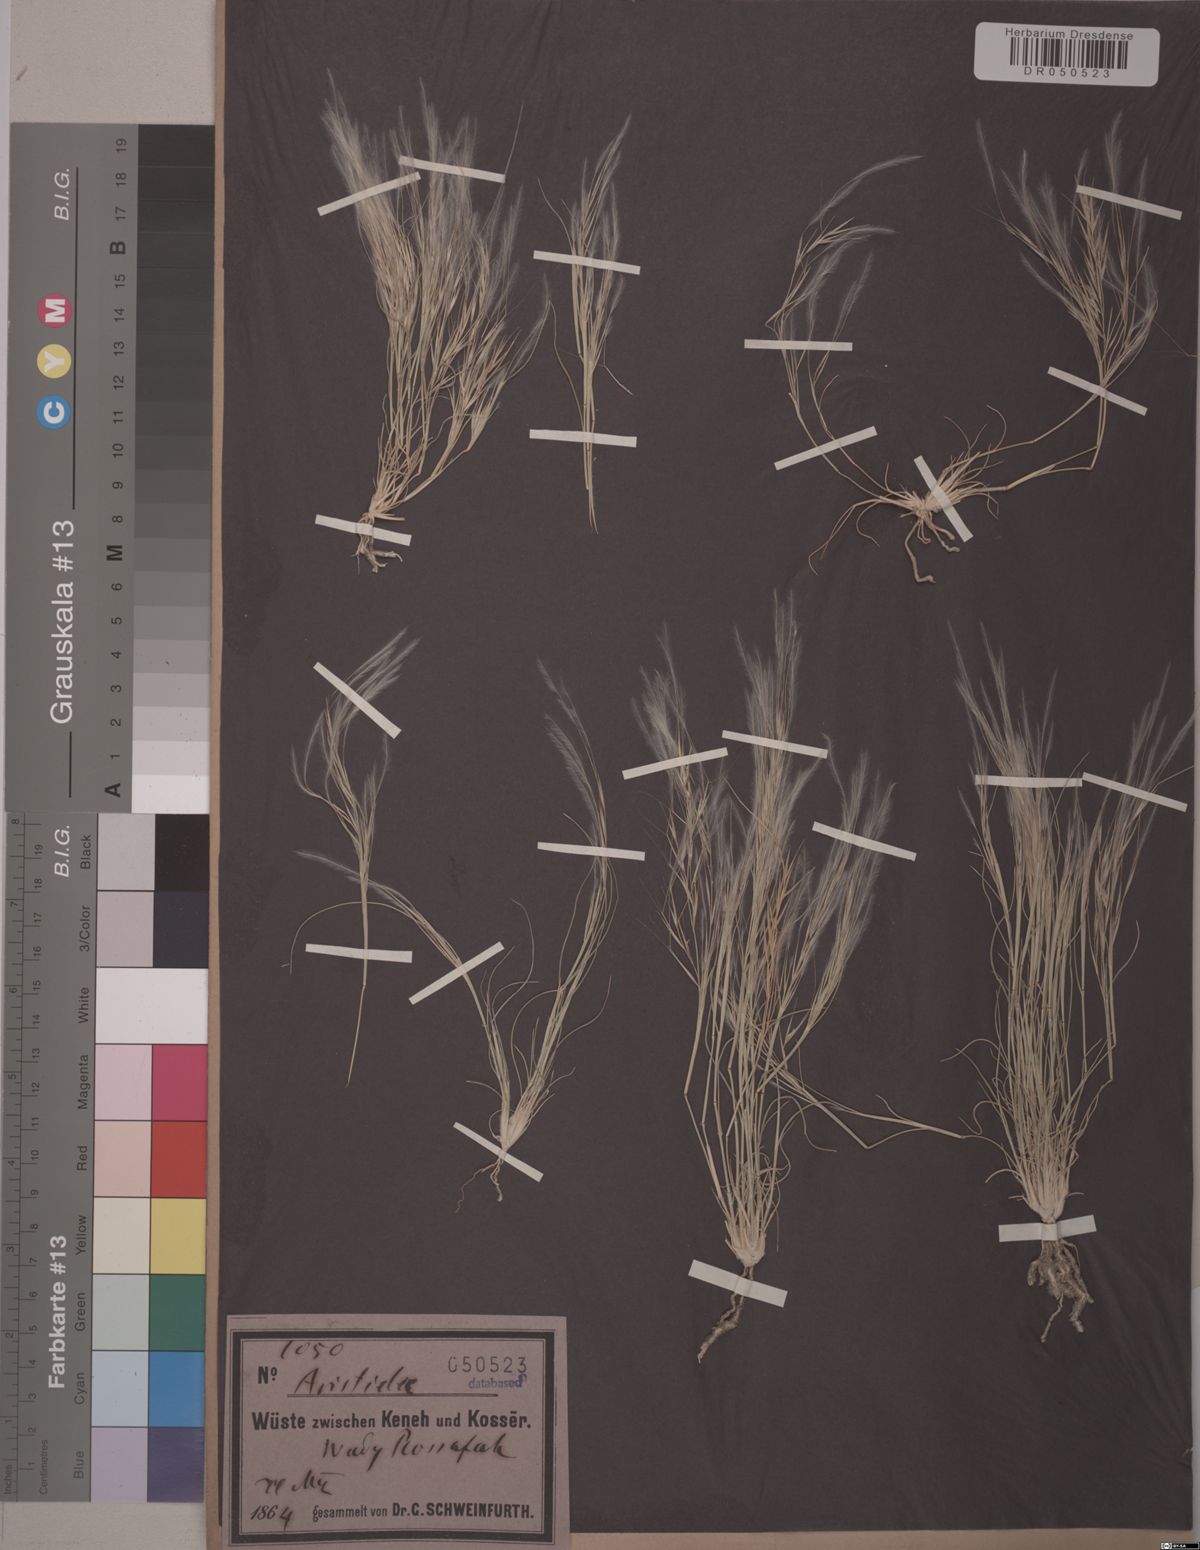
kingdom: Plantae
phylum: Tracheophyta
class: Liliopsida
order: Poales
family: Poaceae
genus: Aristida
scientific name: Aristida
